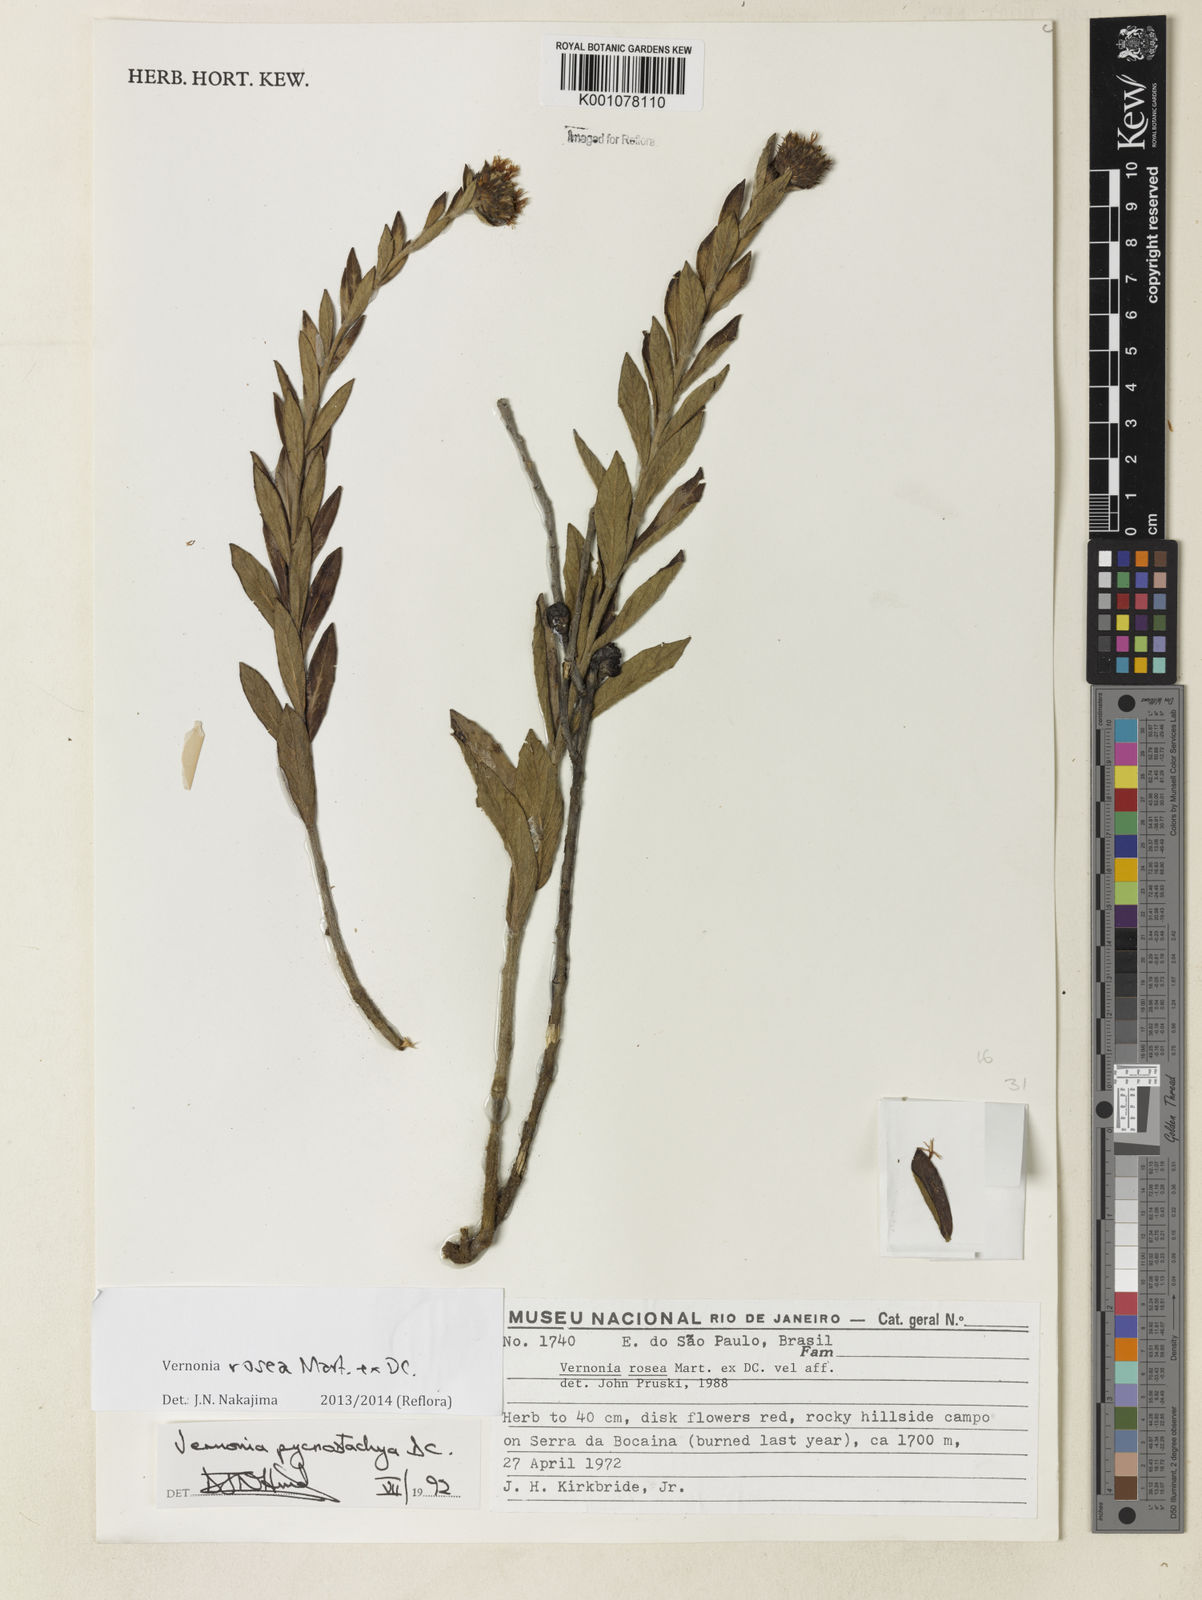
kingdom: Plantae
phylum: Tracheophyta
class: Magnoliopsida
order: Asterales
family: Asteraceae
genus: Lessingianthus
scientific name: Lessingianthus pycnostachyus
